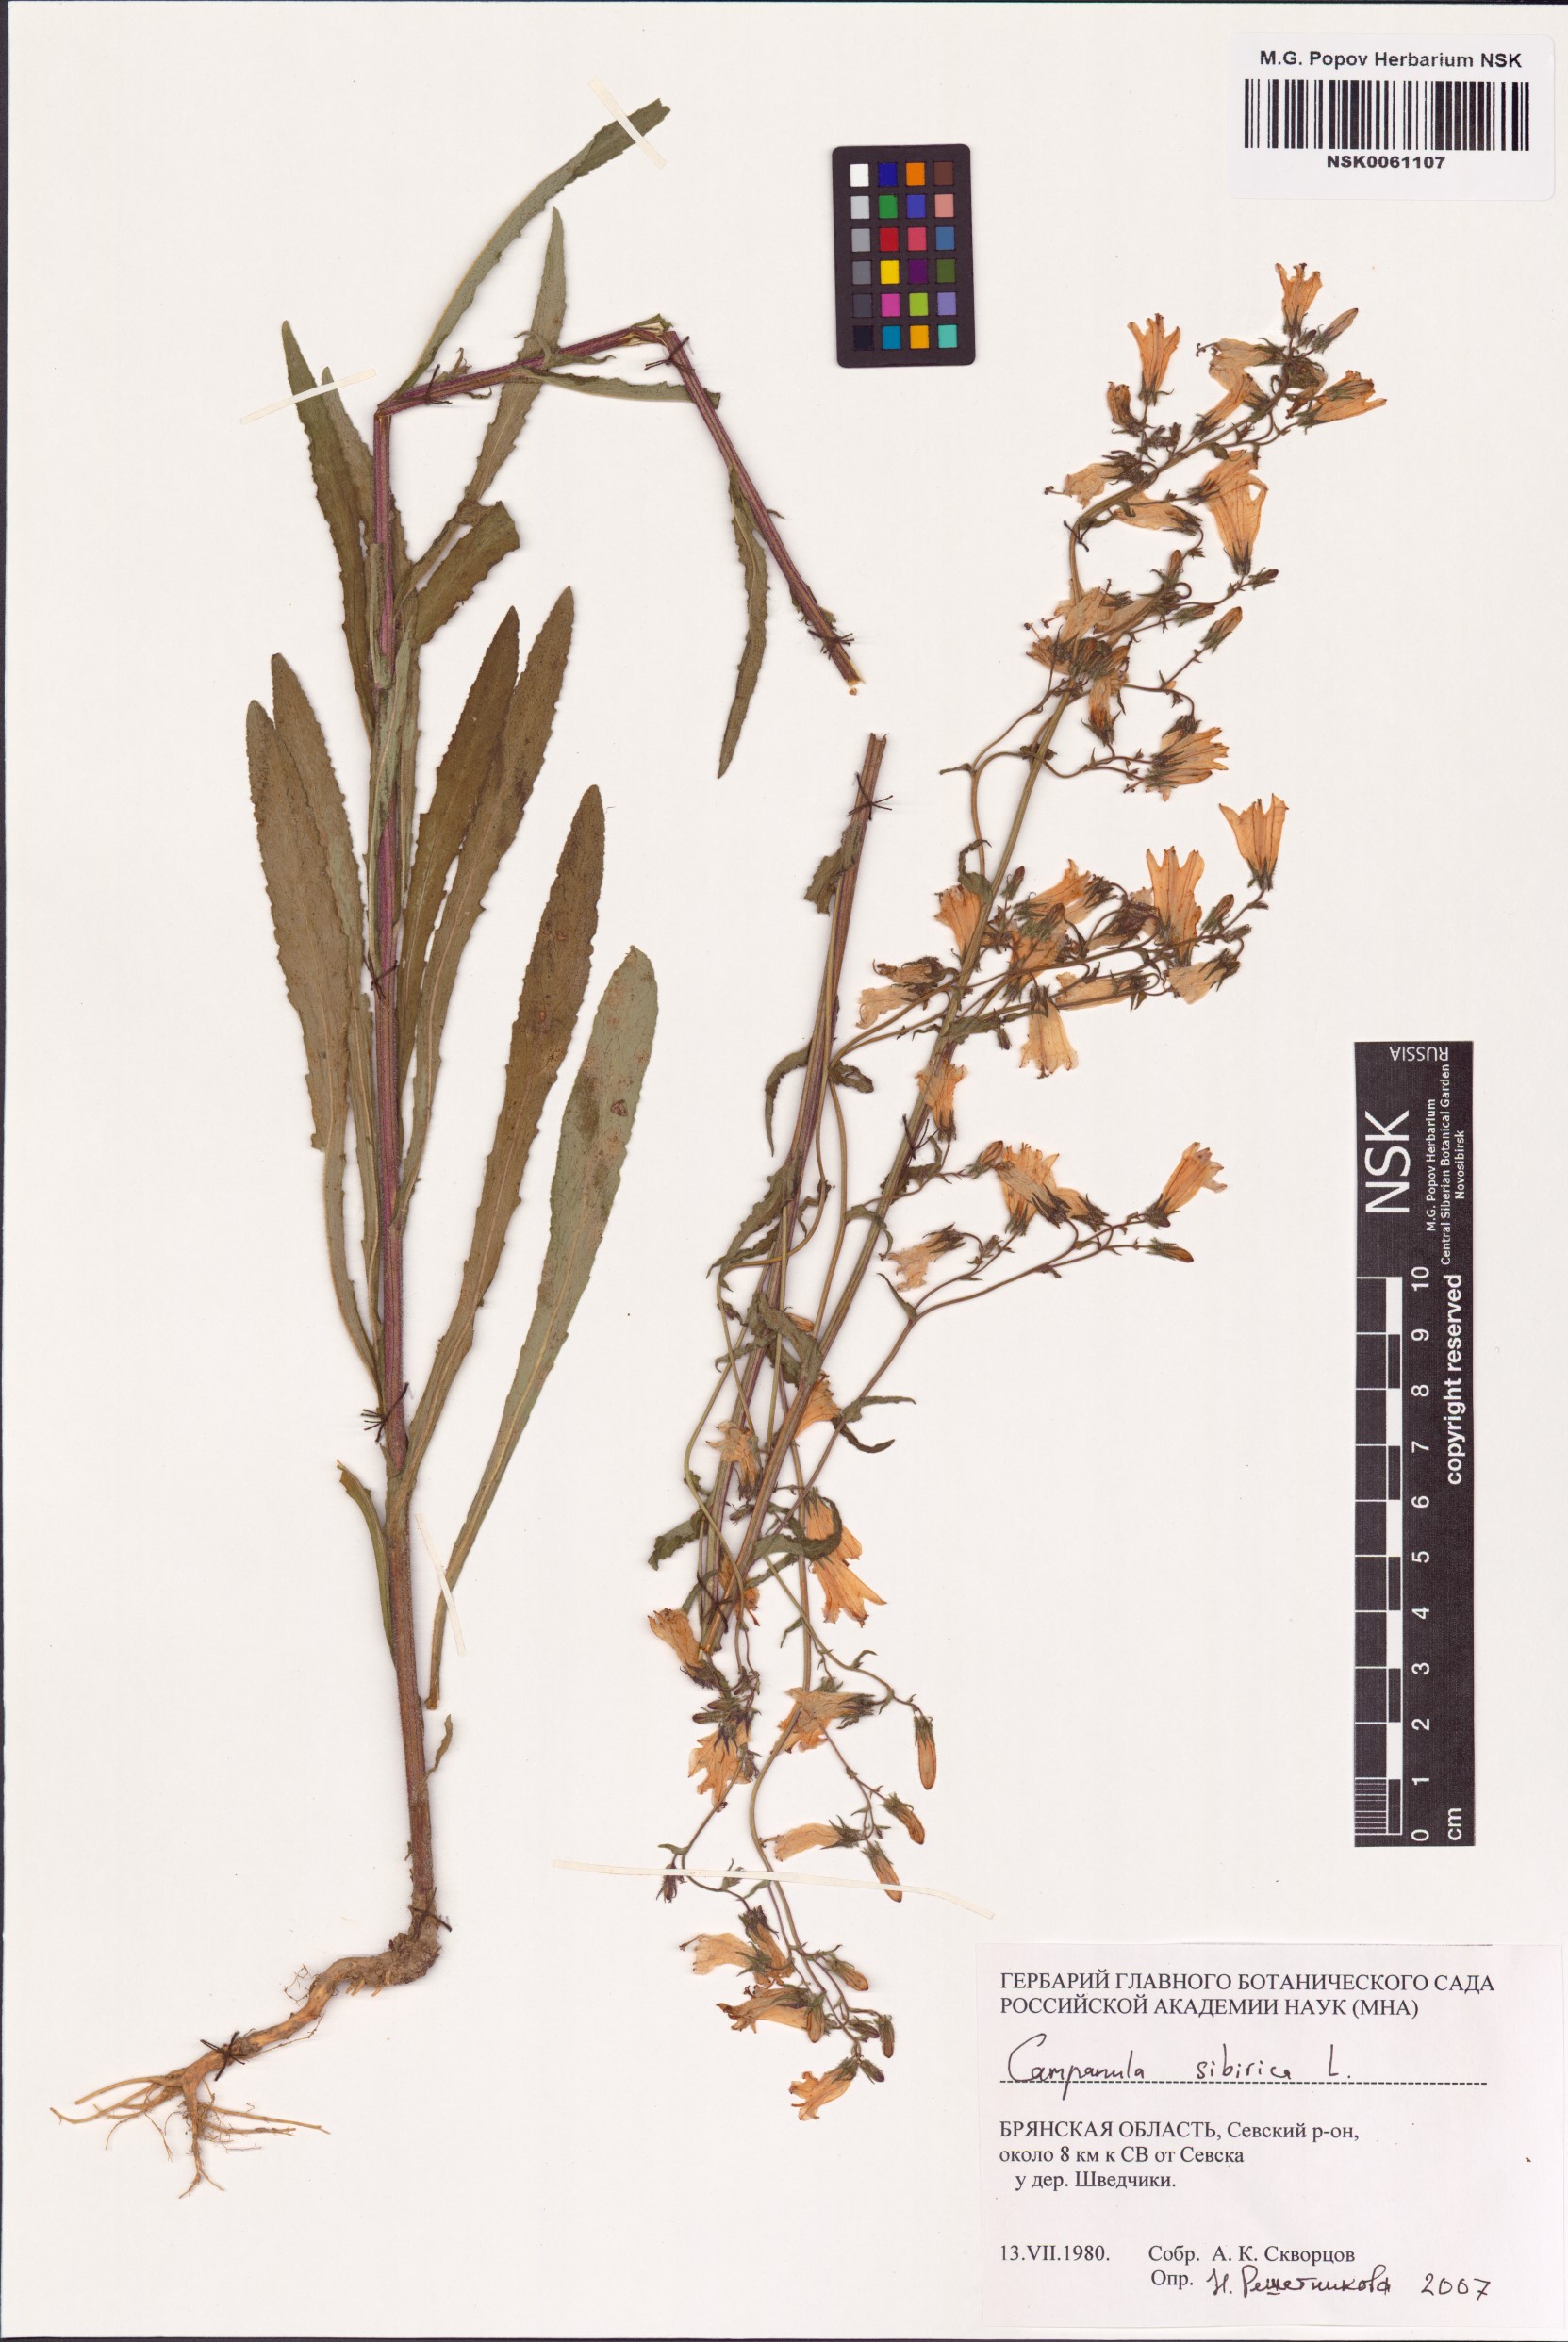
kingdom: Plantae
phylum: Tracheophyta
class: Magnoliopsida
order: Asterales
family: Campanulaceae
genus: Campanula
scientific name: Campanula sibirica
